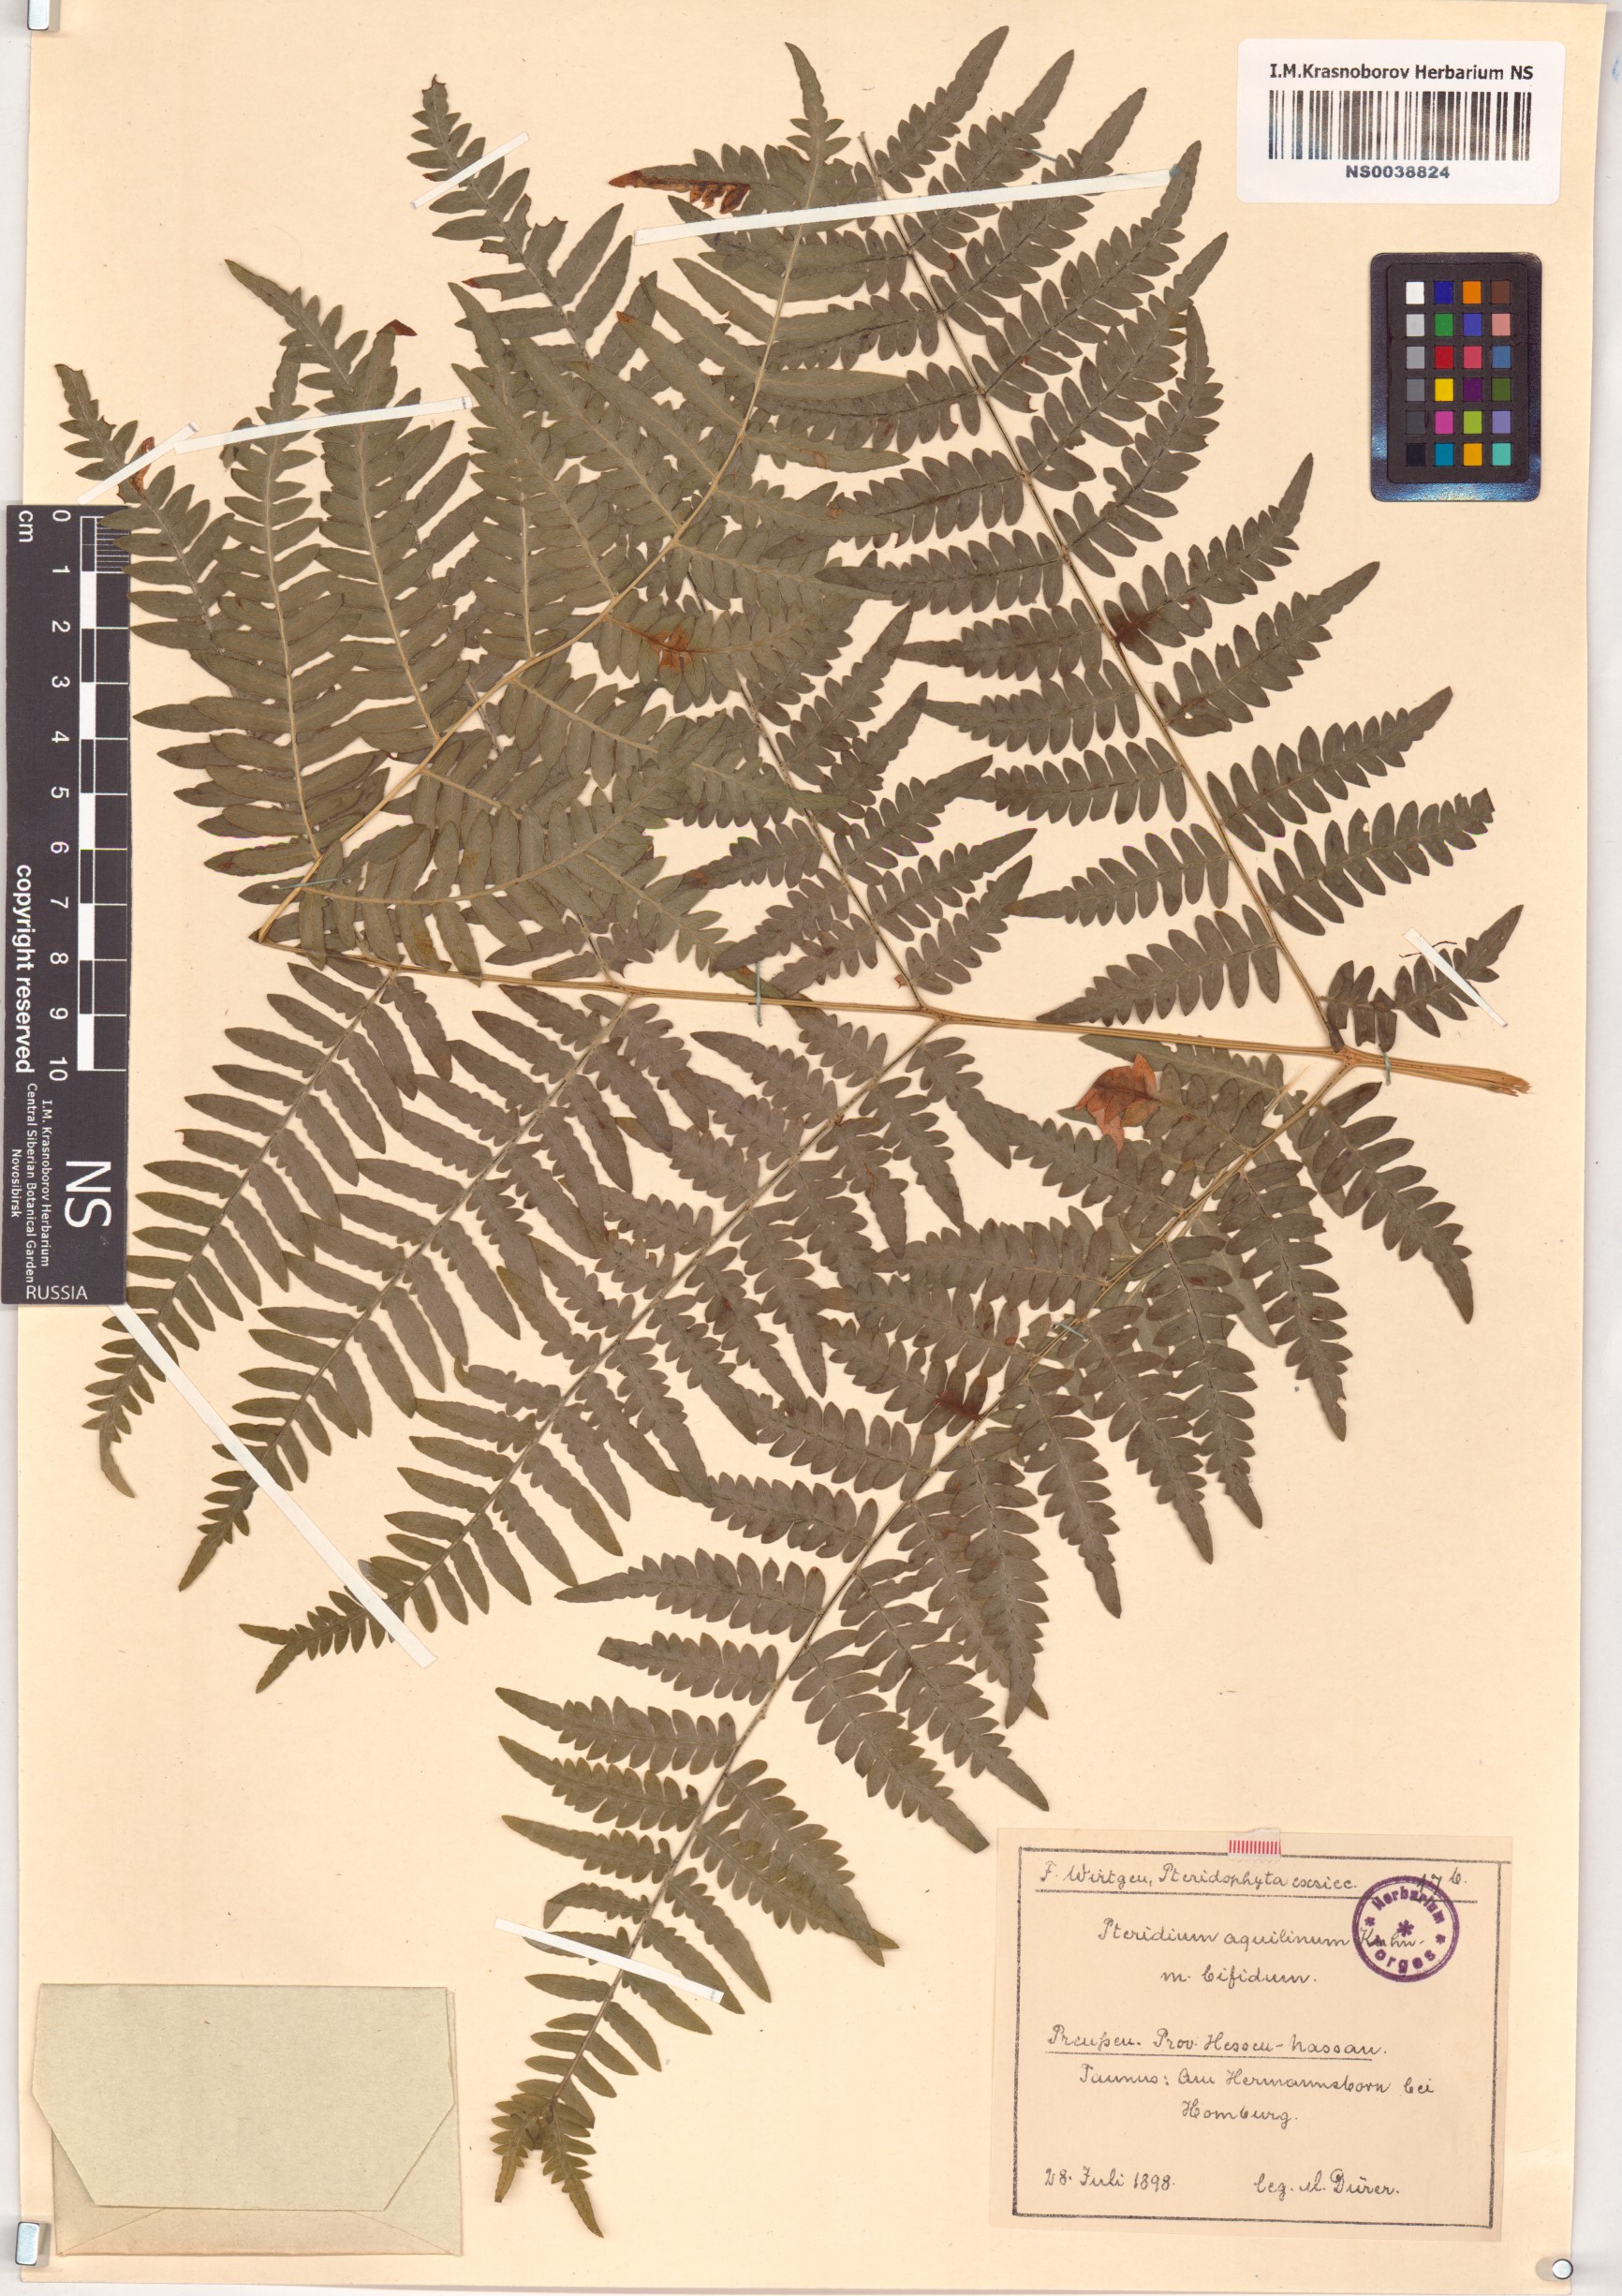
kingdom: Plantae
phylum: Tracheophyta
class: Polypodiopsida
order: Polypodiales
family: Dennstaedtiaceae
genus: Pteridium
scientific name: Pteridium aquilinum
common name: Bracken
